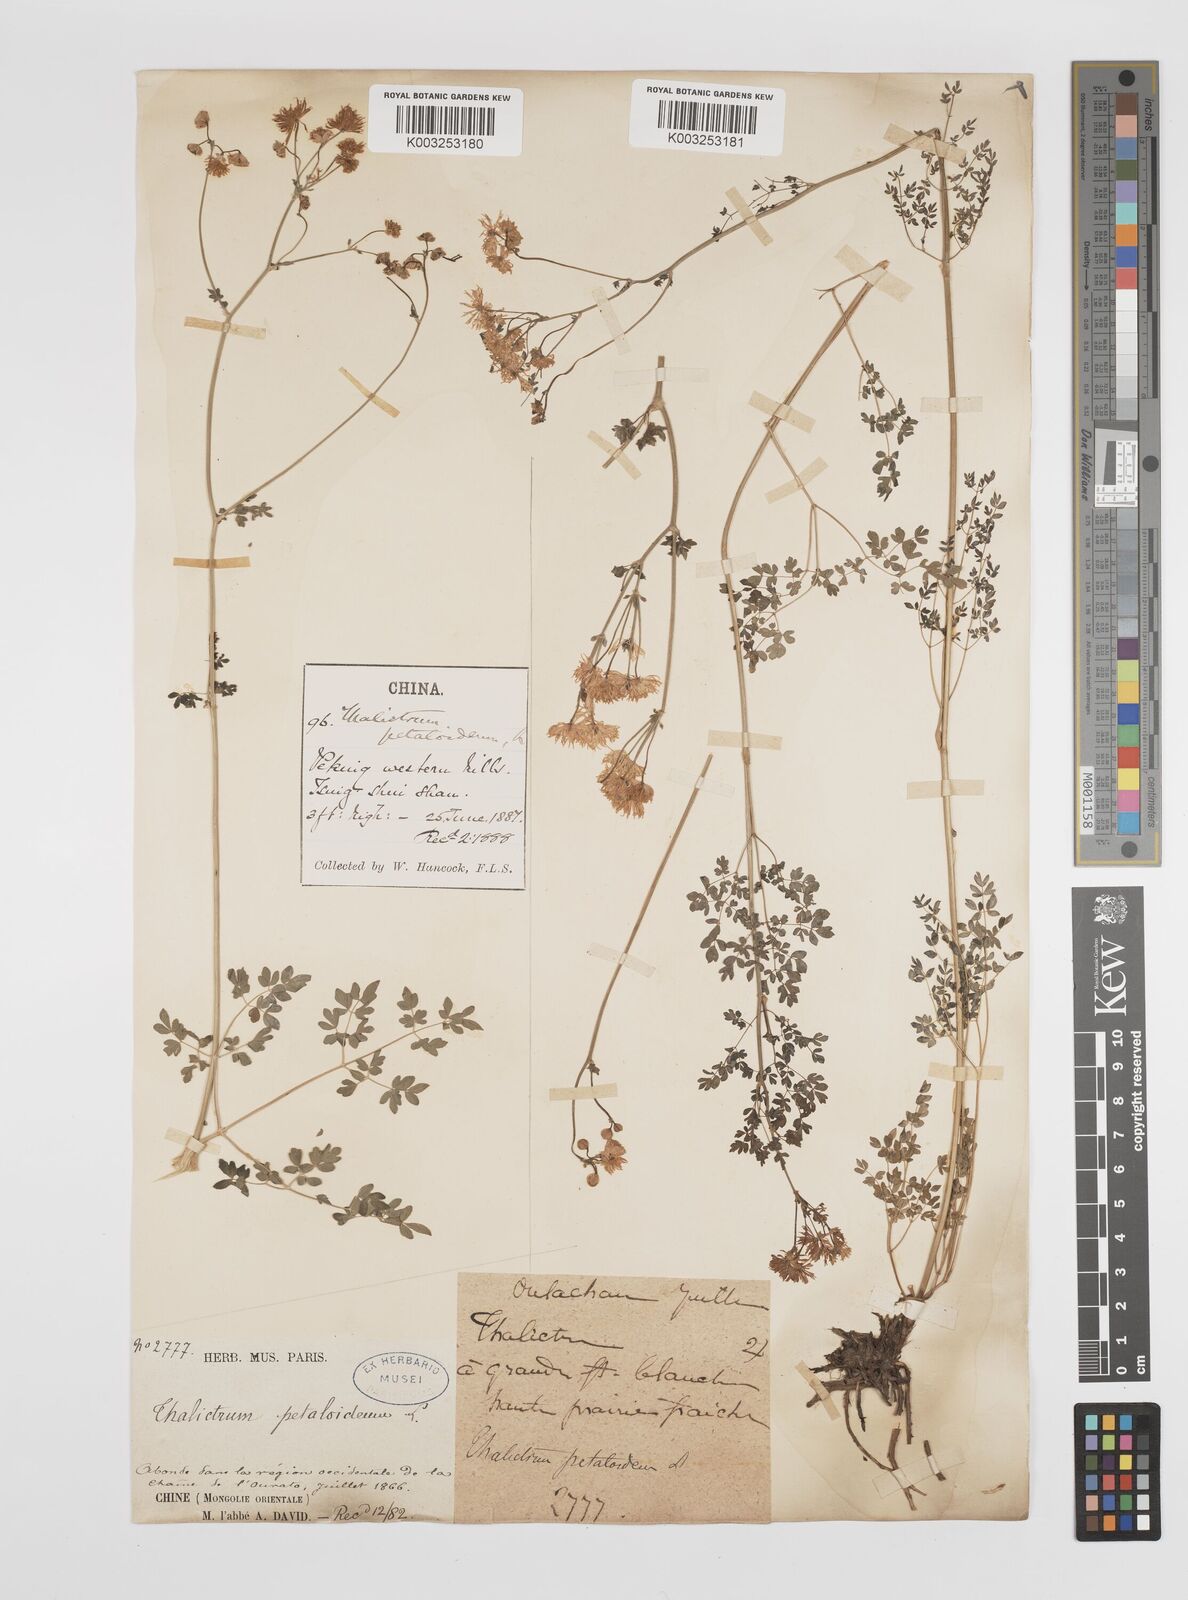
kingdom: Plantae
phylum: Tracheophyta
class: Magnoliopsida
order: Ranunculales
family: Ranunculaceae
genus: Thalictrum
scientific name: Thalictrum petaloideum
